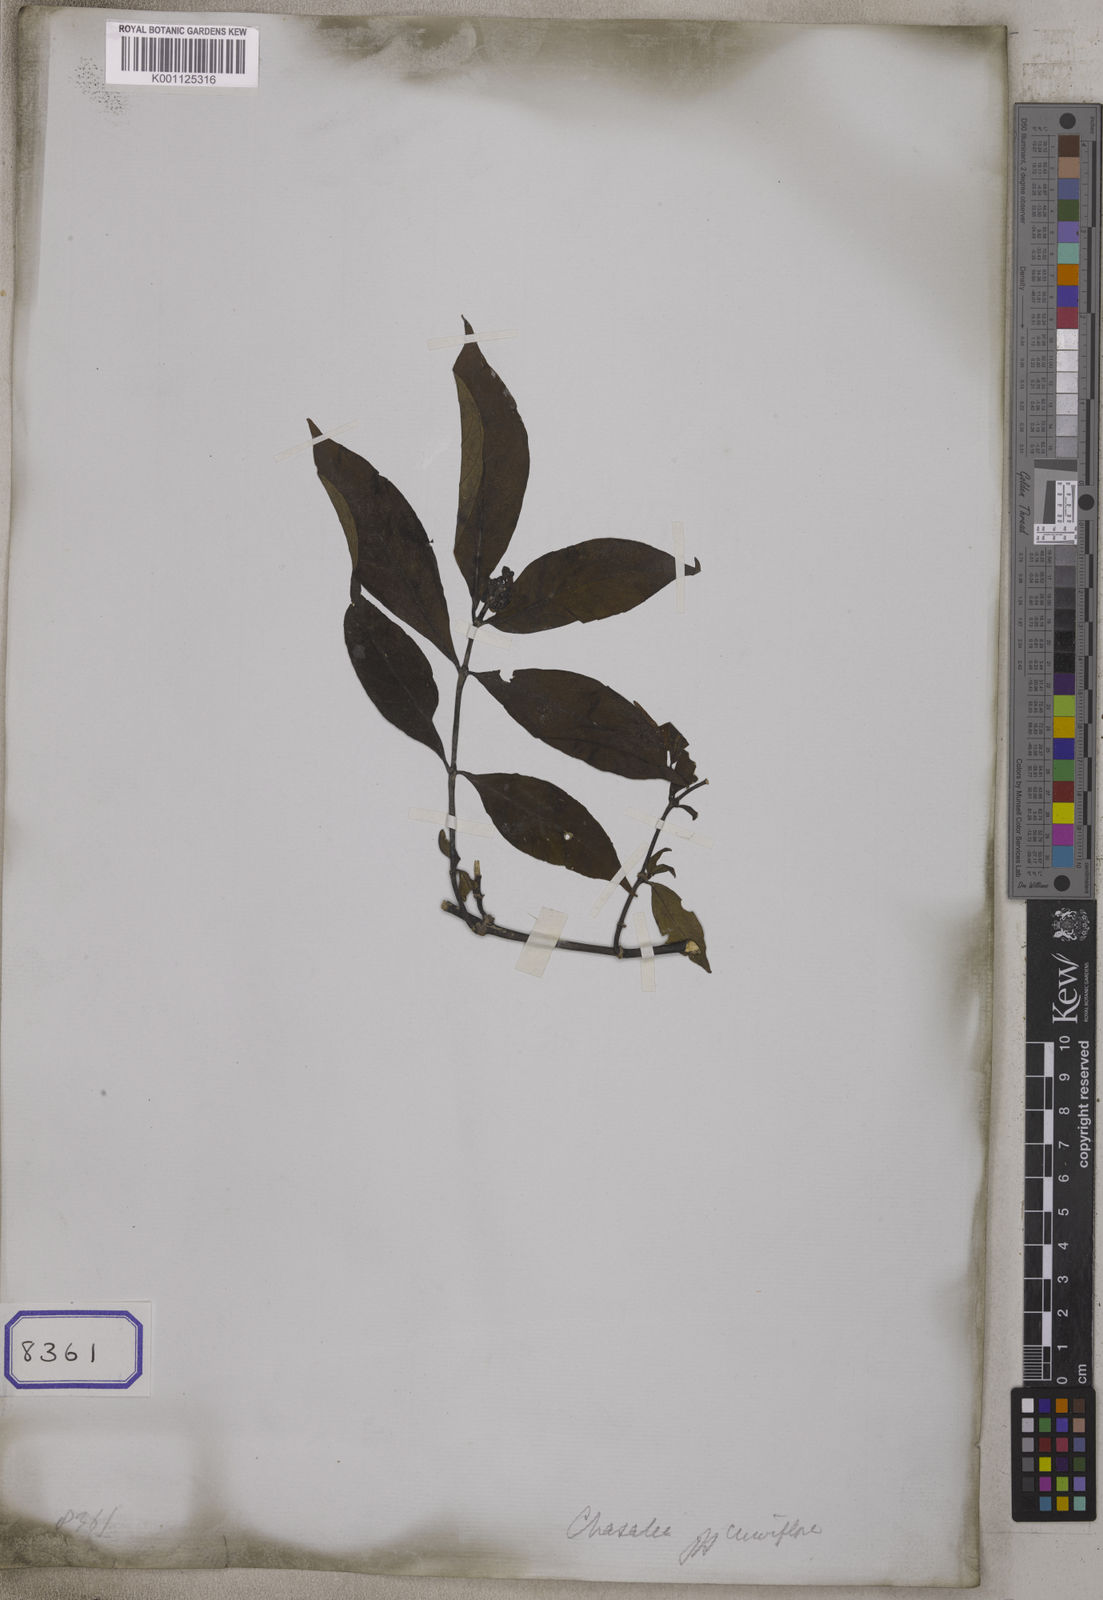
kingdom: Plantae
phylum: Tracheophyta
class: Magnoliopsida
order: Gentianales
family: Rubiaceae
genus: Psychotria
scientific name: Psychotria
